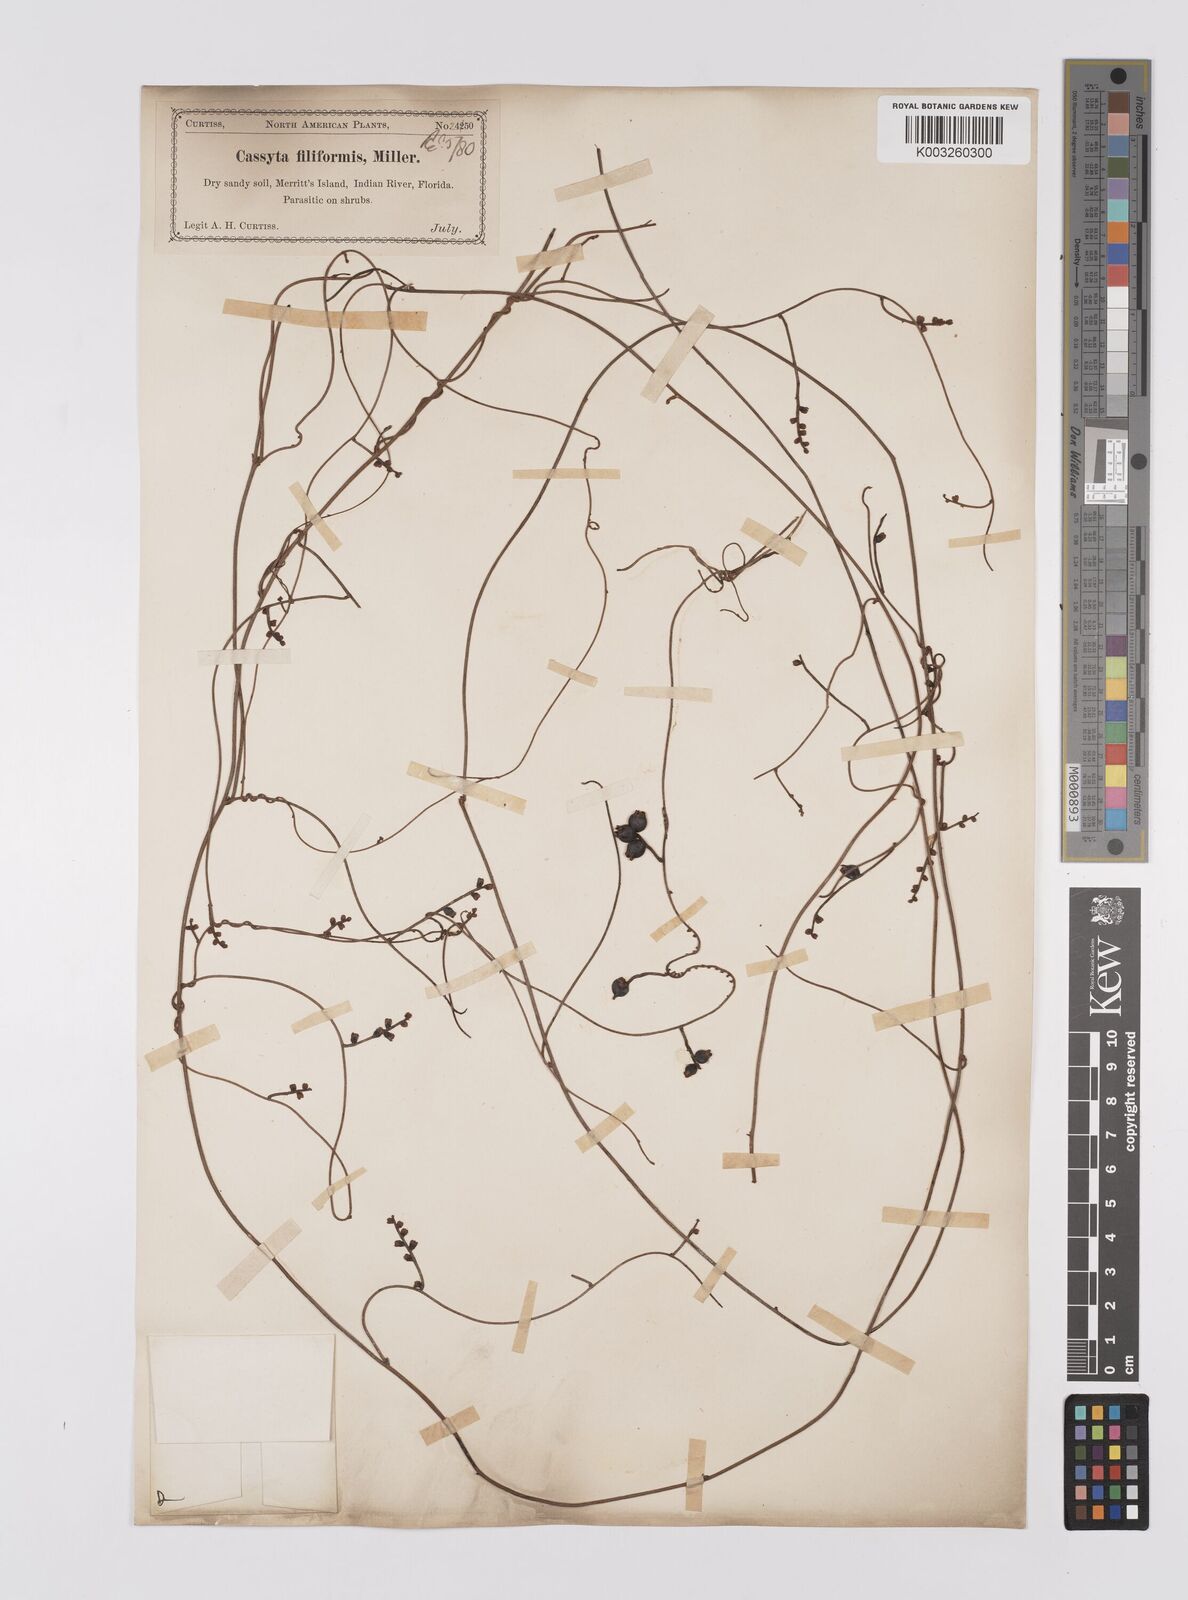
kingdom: Plantae
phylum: Tracheophyta
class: Magnoliopsida
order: Laurales
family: Lauraceae
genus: Cassytha
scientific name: Cassytha filiformis
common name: Dodder-laurel
